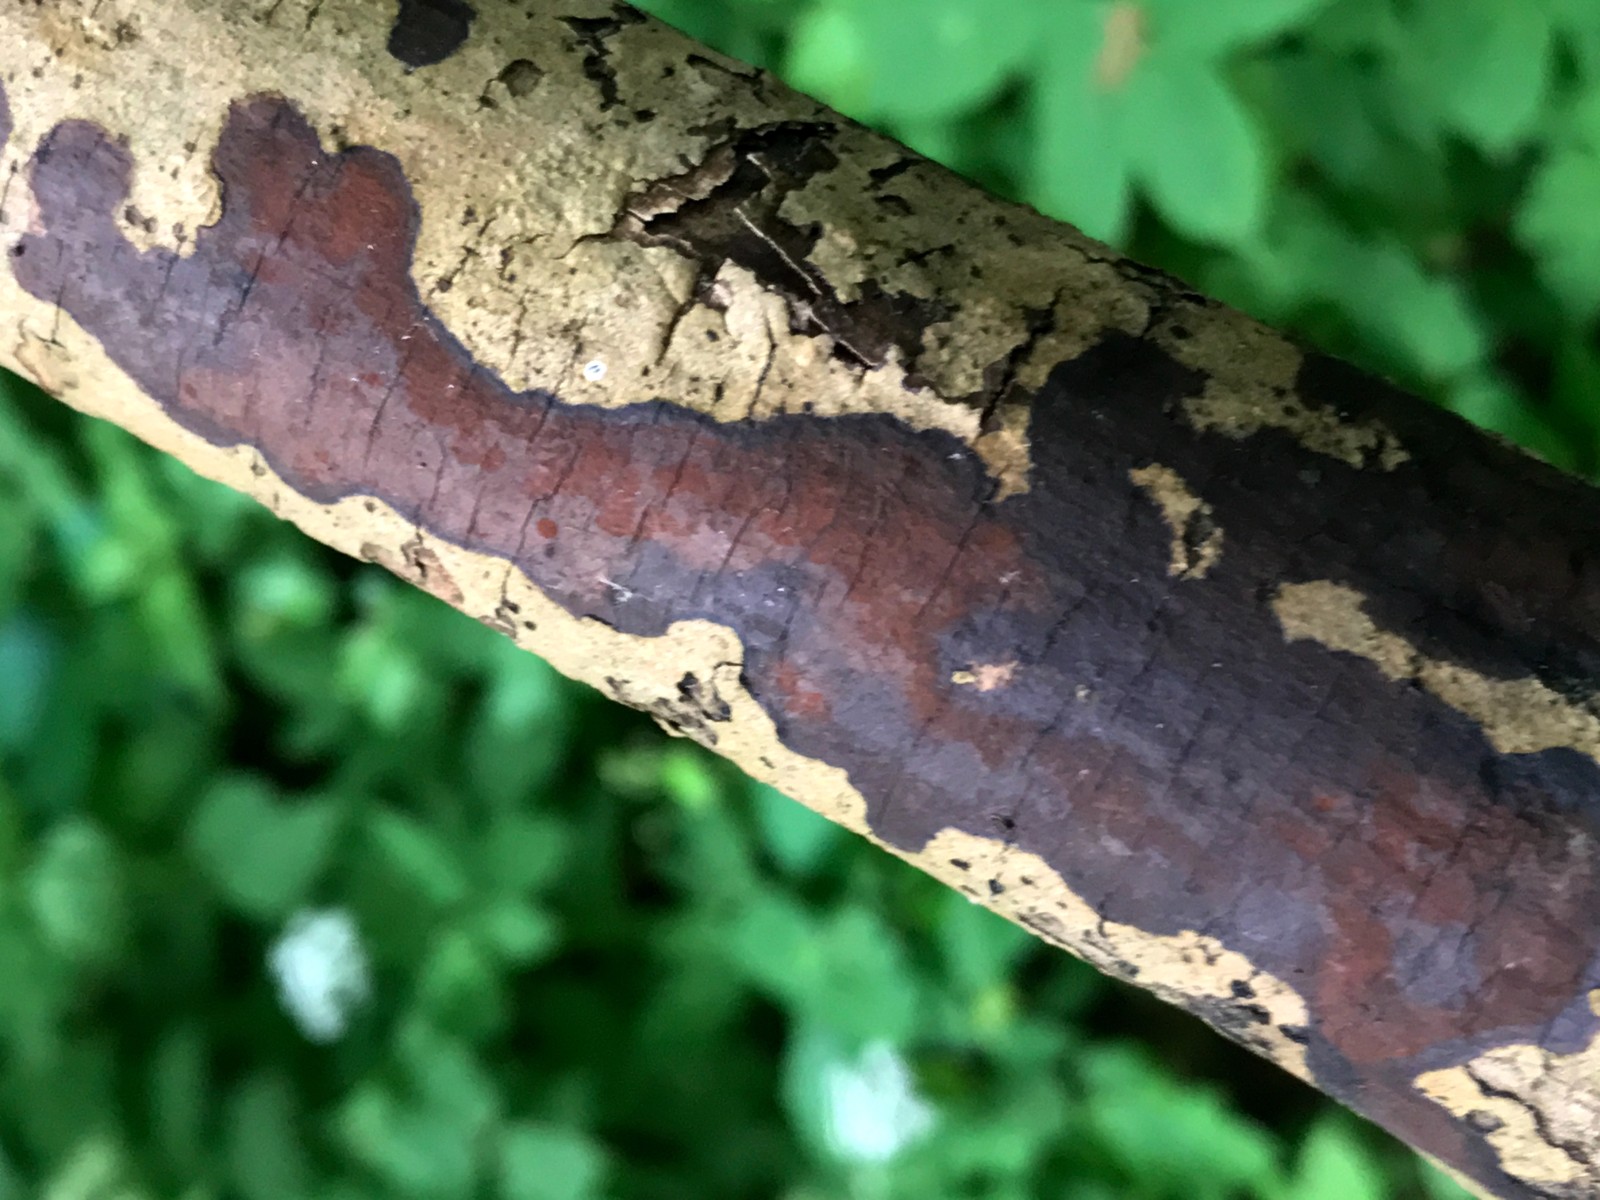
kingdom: Fungi
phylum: Ascomycota
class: Sordariomycetes
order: Xylariales
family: Hypoxylaceae
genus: Hypoxylon
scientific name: Hypoxylon petriniae
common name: nedsænket kulbær
